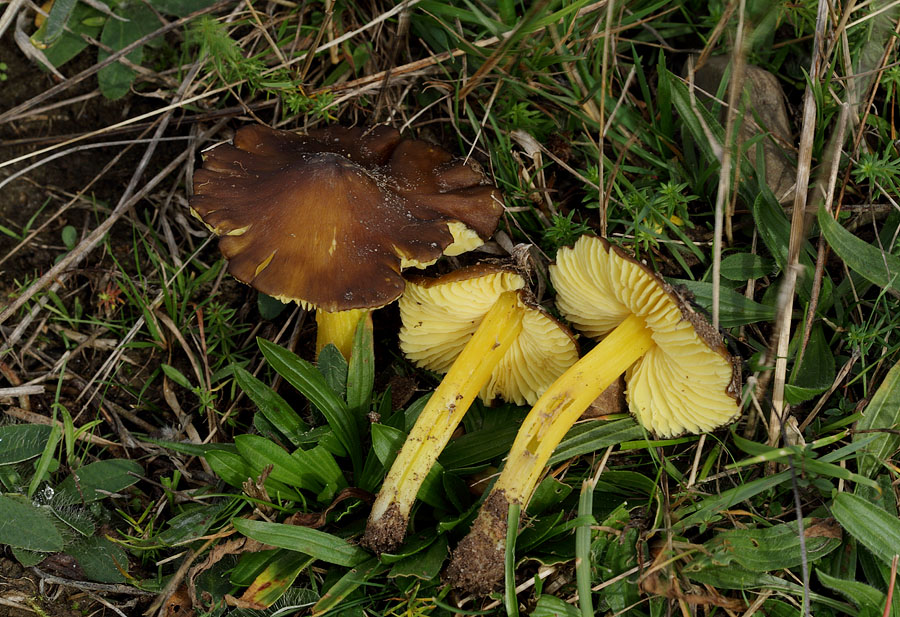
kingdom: Fungi
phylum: Basidiomycota
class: Agaricomycetes
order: Agaricales
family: Hygrophoraceae
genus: Hygrocybe
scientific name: Hygrocybe spadicea
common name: daddelbrun vokshat
